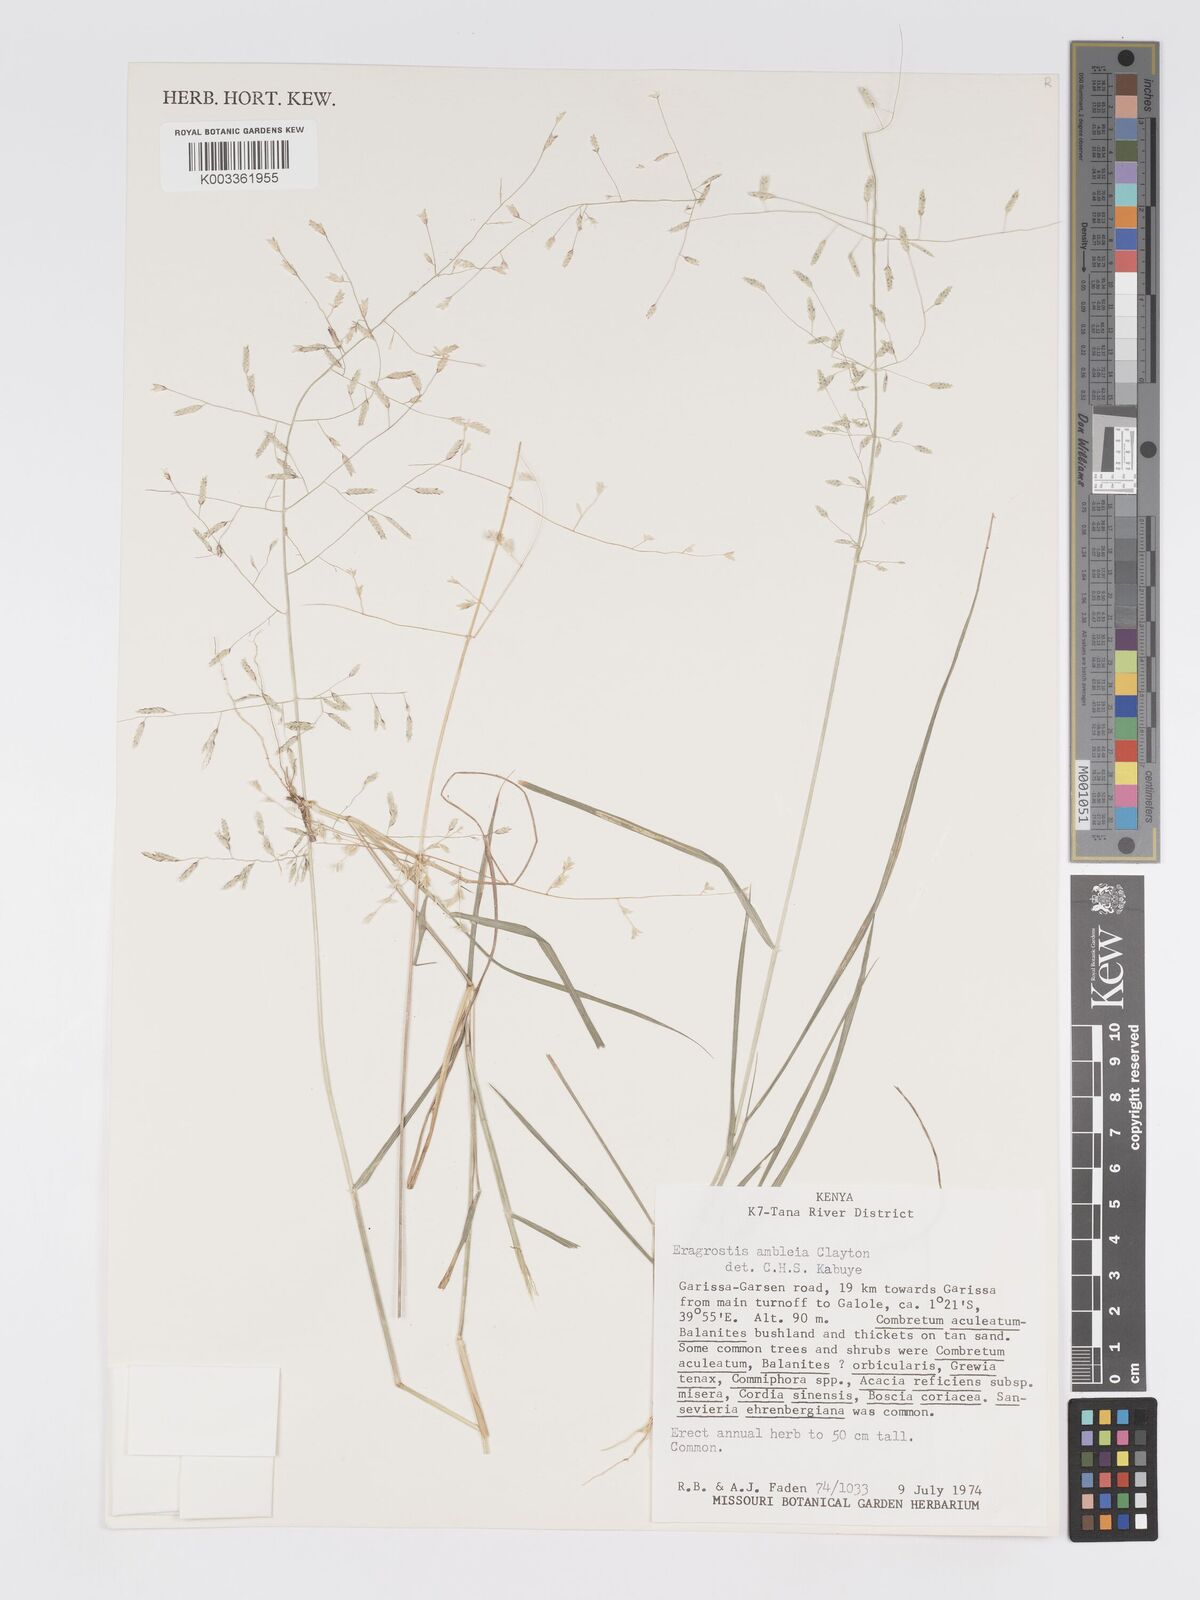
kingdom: Plantae
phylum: Tracheophyta
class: Liliopsida
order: Poales
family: Poaceae
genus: Eragrostis
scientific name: Eragrostis ambleia
